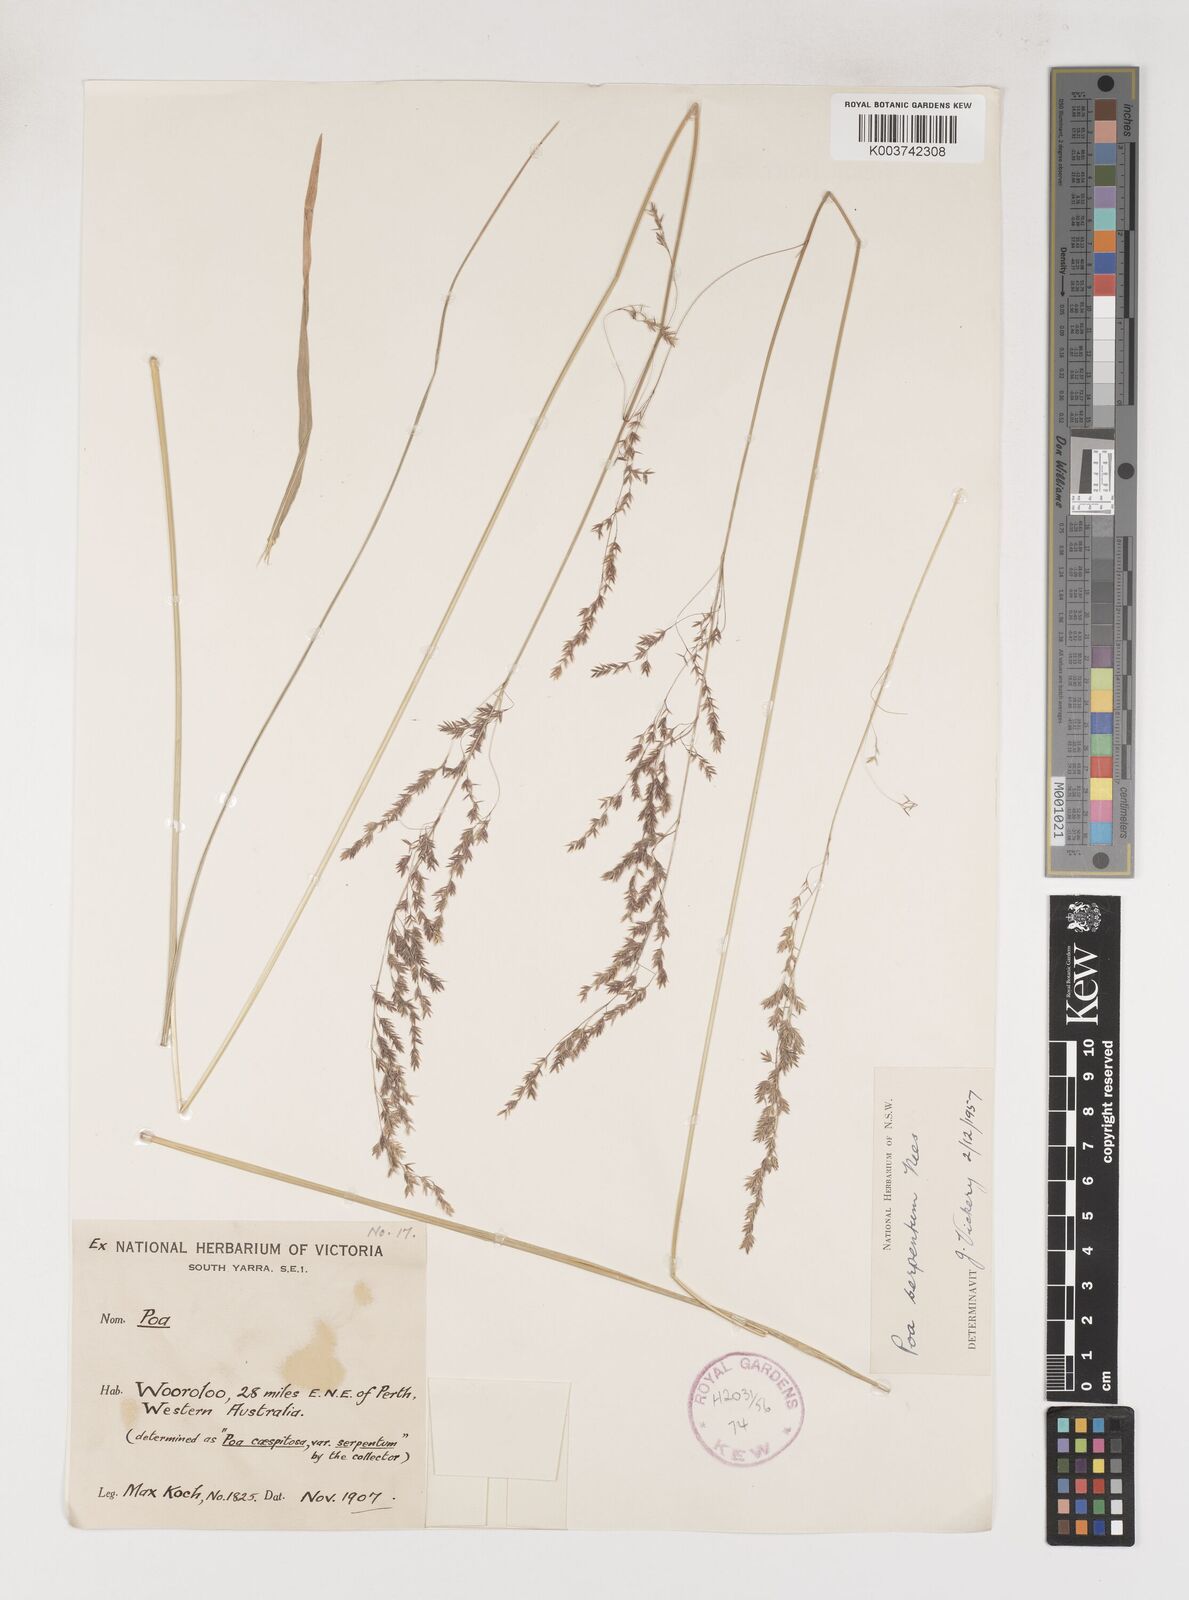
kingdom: Plantae
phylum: Tracheophyta
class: Liliopsida
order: Poales
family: Poaceae
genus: Poa
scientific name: Poa porphyroclados
